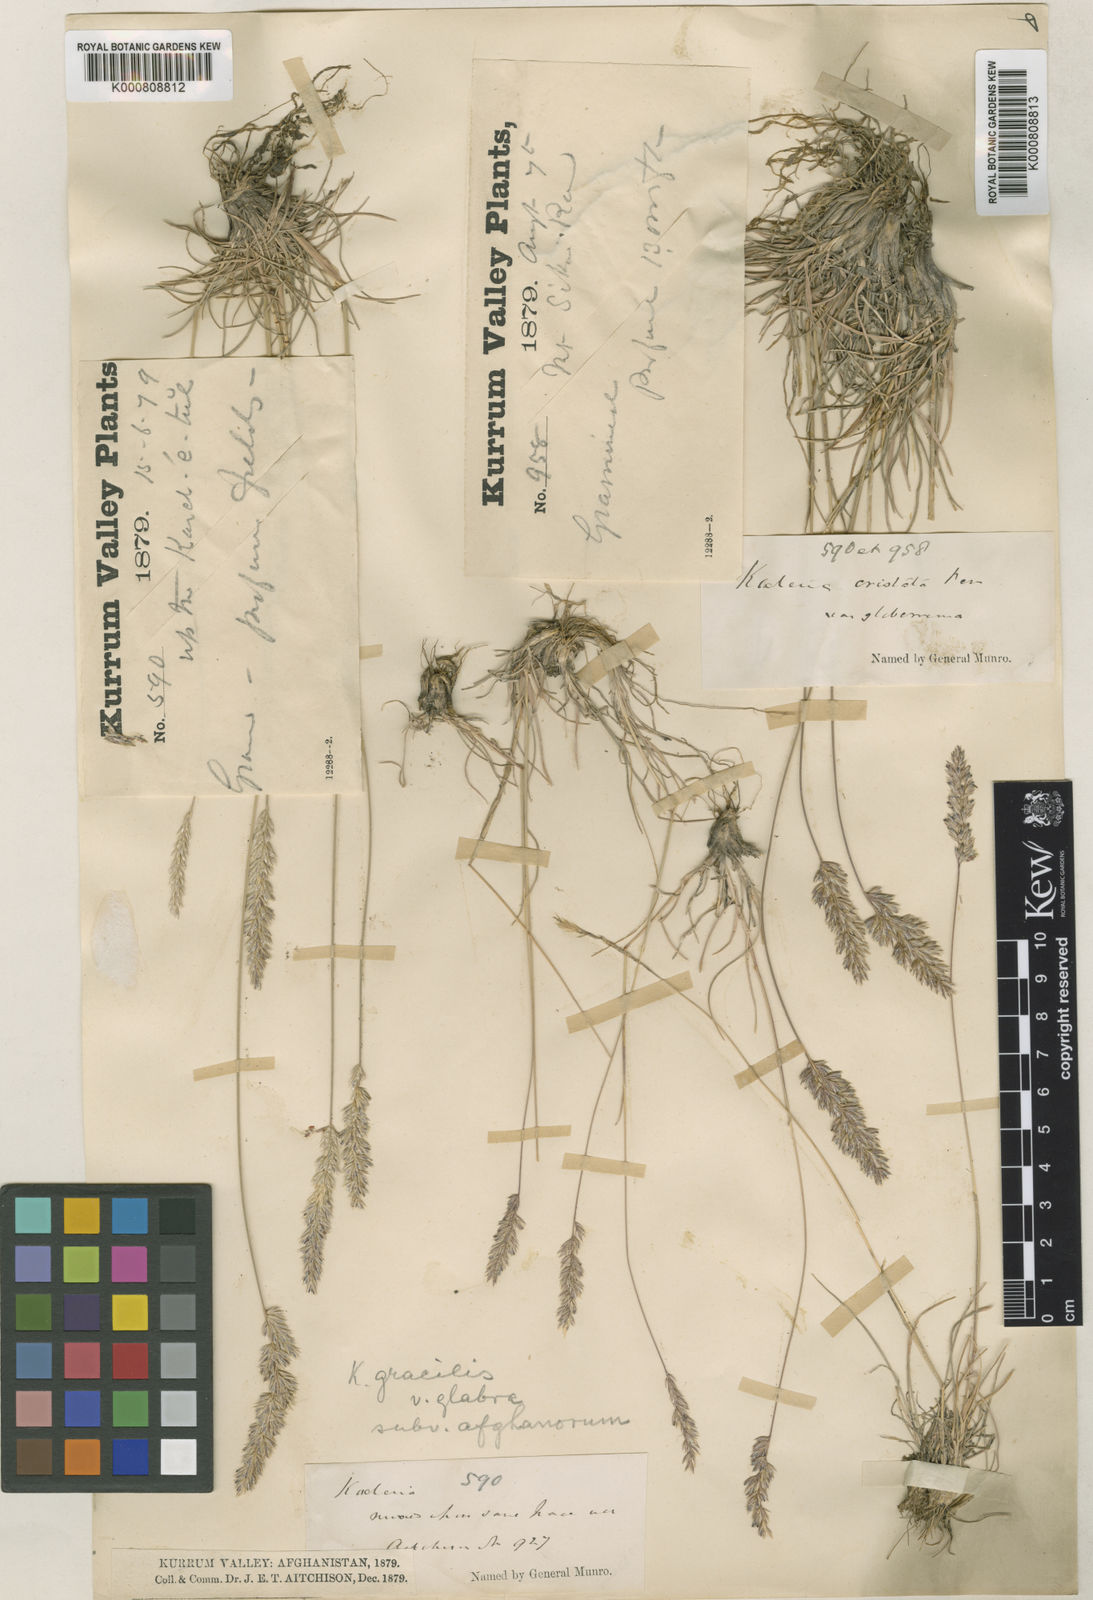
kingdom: Plantae
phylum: Tracheophyta
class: Liliopsida
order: Poales
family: Poaceae
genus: Koeleria
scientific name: Koeleria macrantha
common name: Crested hair-grass
